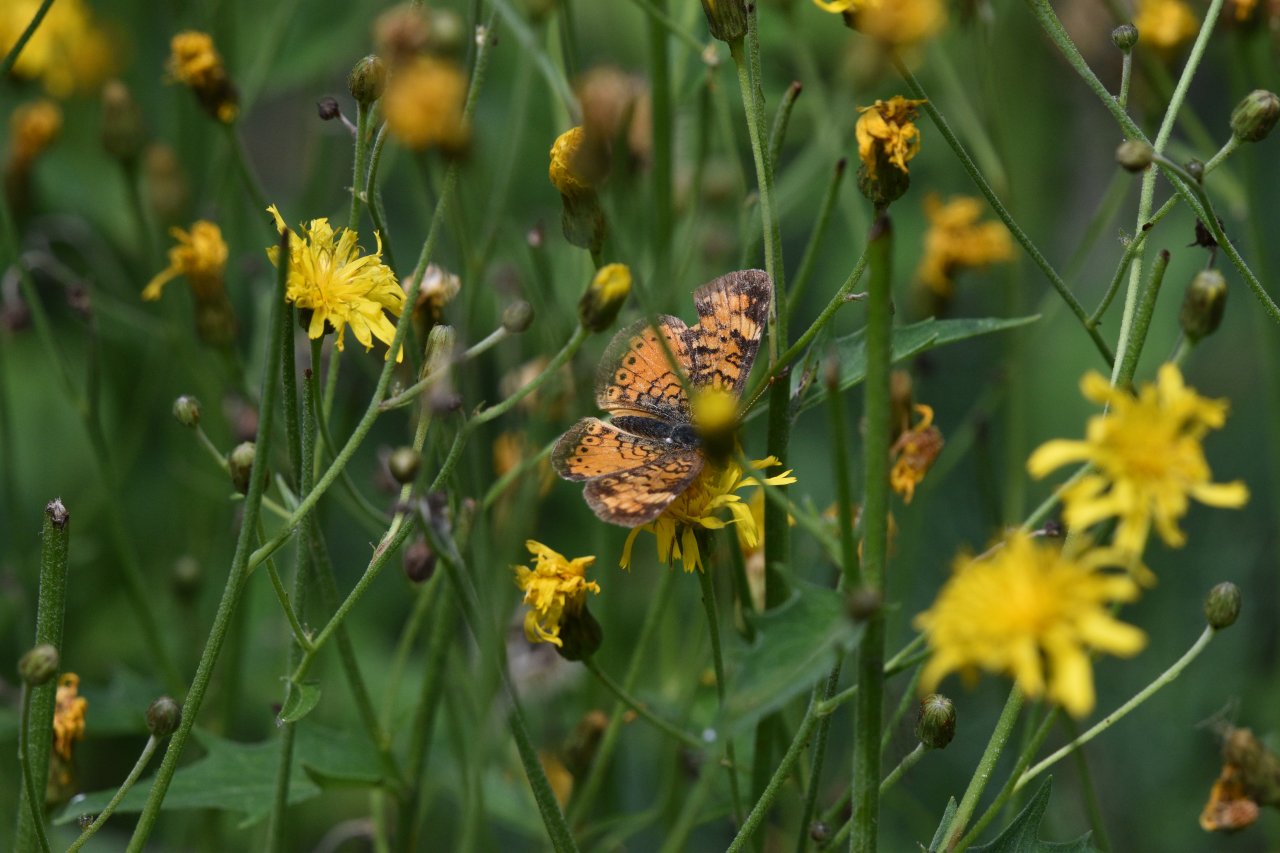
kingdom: Animalia
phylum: Arthropoda
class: Insecta
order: Lepidoptera
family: Nymphalidae
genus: Phyciodes
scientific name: Phyciodes tharos
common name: Northern Crescent
